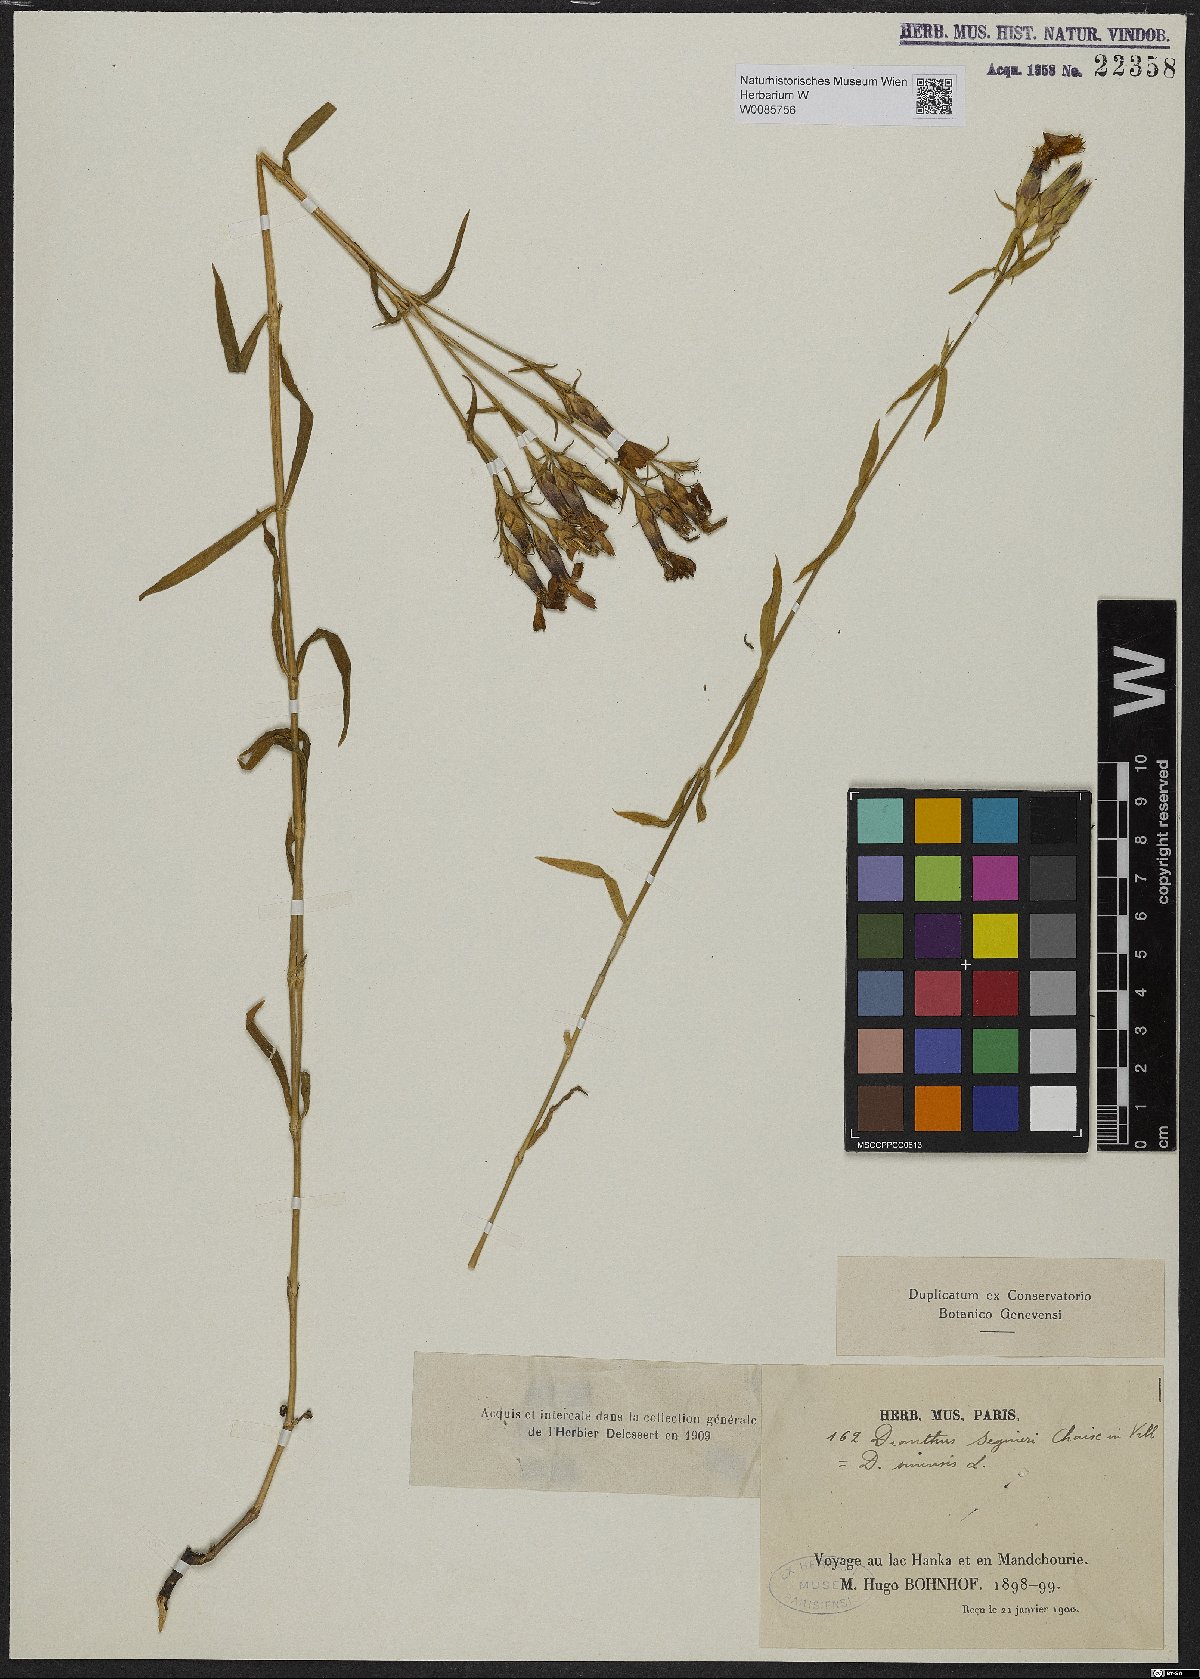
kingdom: Plantae
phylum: Tracheophyta
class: Magnoliopsida
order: Caryophyllales
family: Caryophyllaceae
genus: Dianthus
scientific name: Dianthus seguieri
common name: Ragged pink
